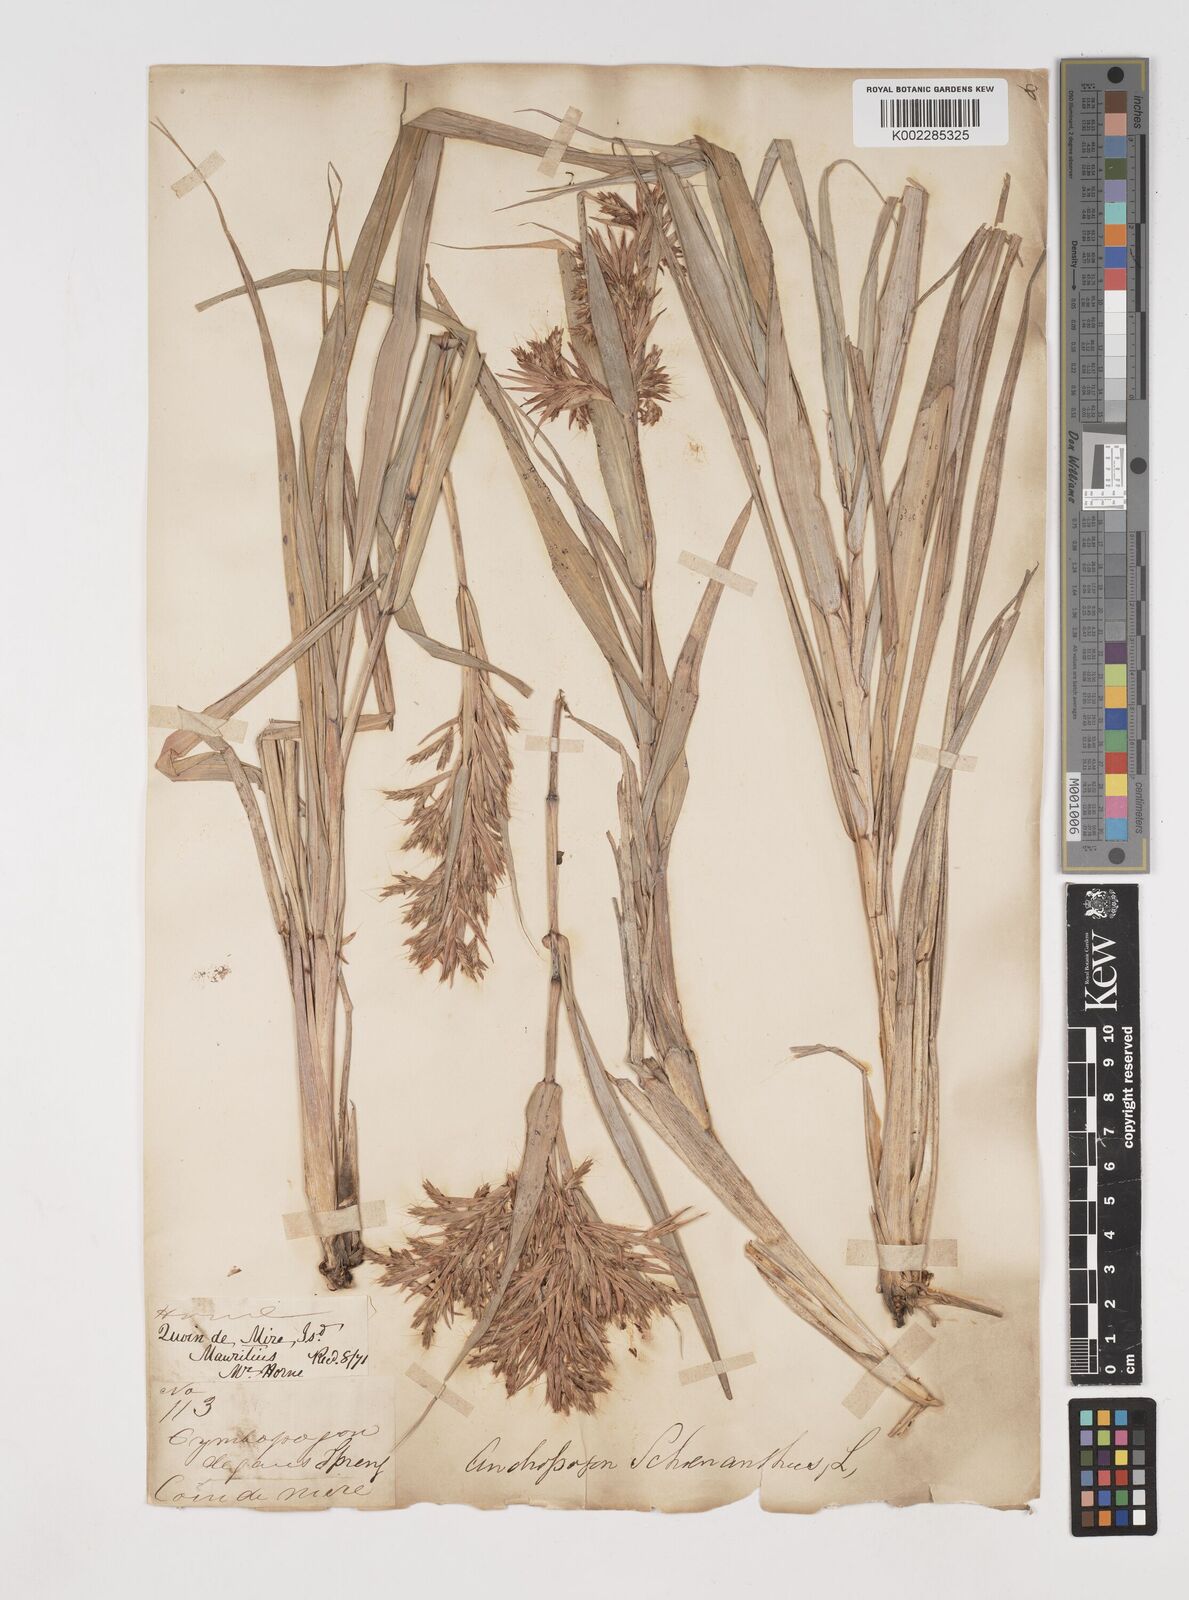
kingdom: Plantae
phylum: Tracheophyta
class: Liliopsida
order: Poales
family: Poaceae
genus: Cymbopogon
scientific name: Cymbopogon pruinosus
